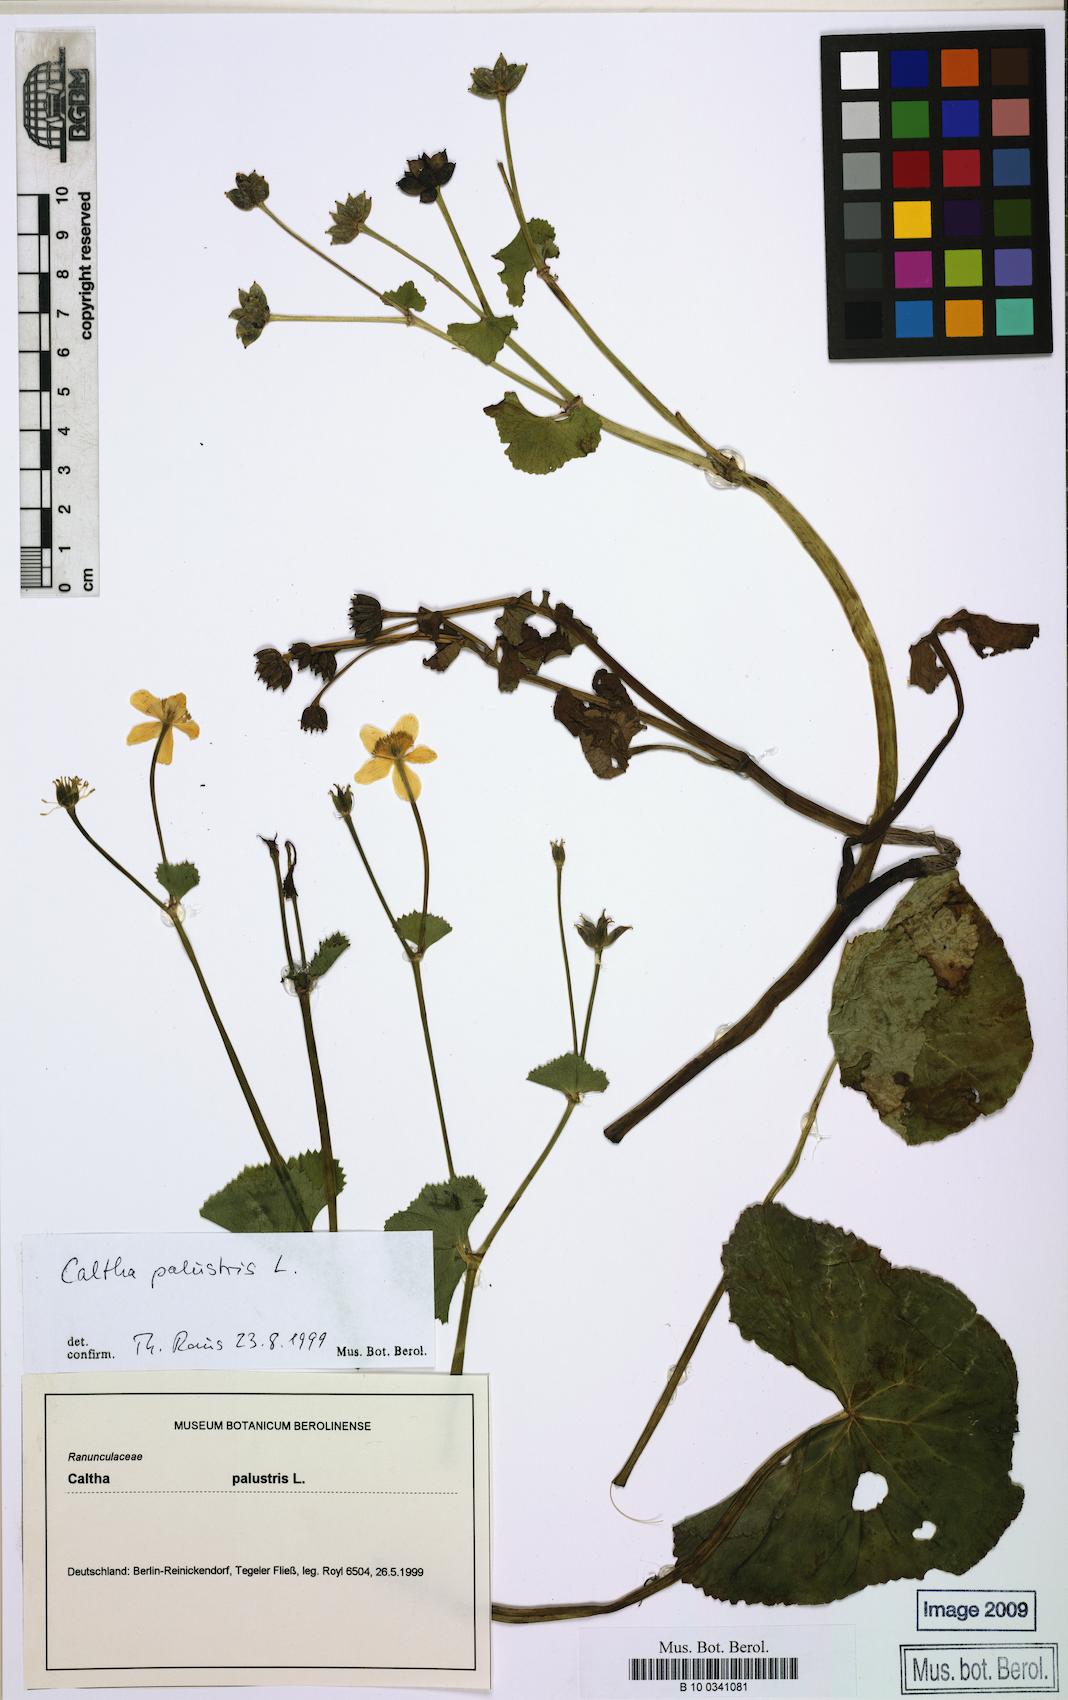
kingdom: Plantae
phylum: Tracheophyta
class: Magnoliopsida
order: Ranunculales
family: Ranunculaceae
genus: Caltha
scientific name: Caltha palustris
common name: Marsh marigold
